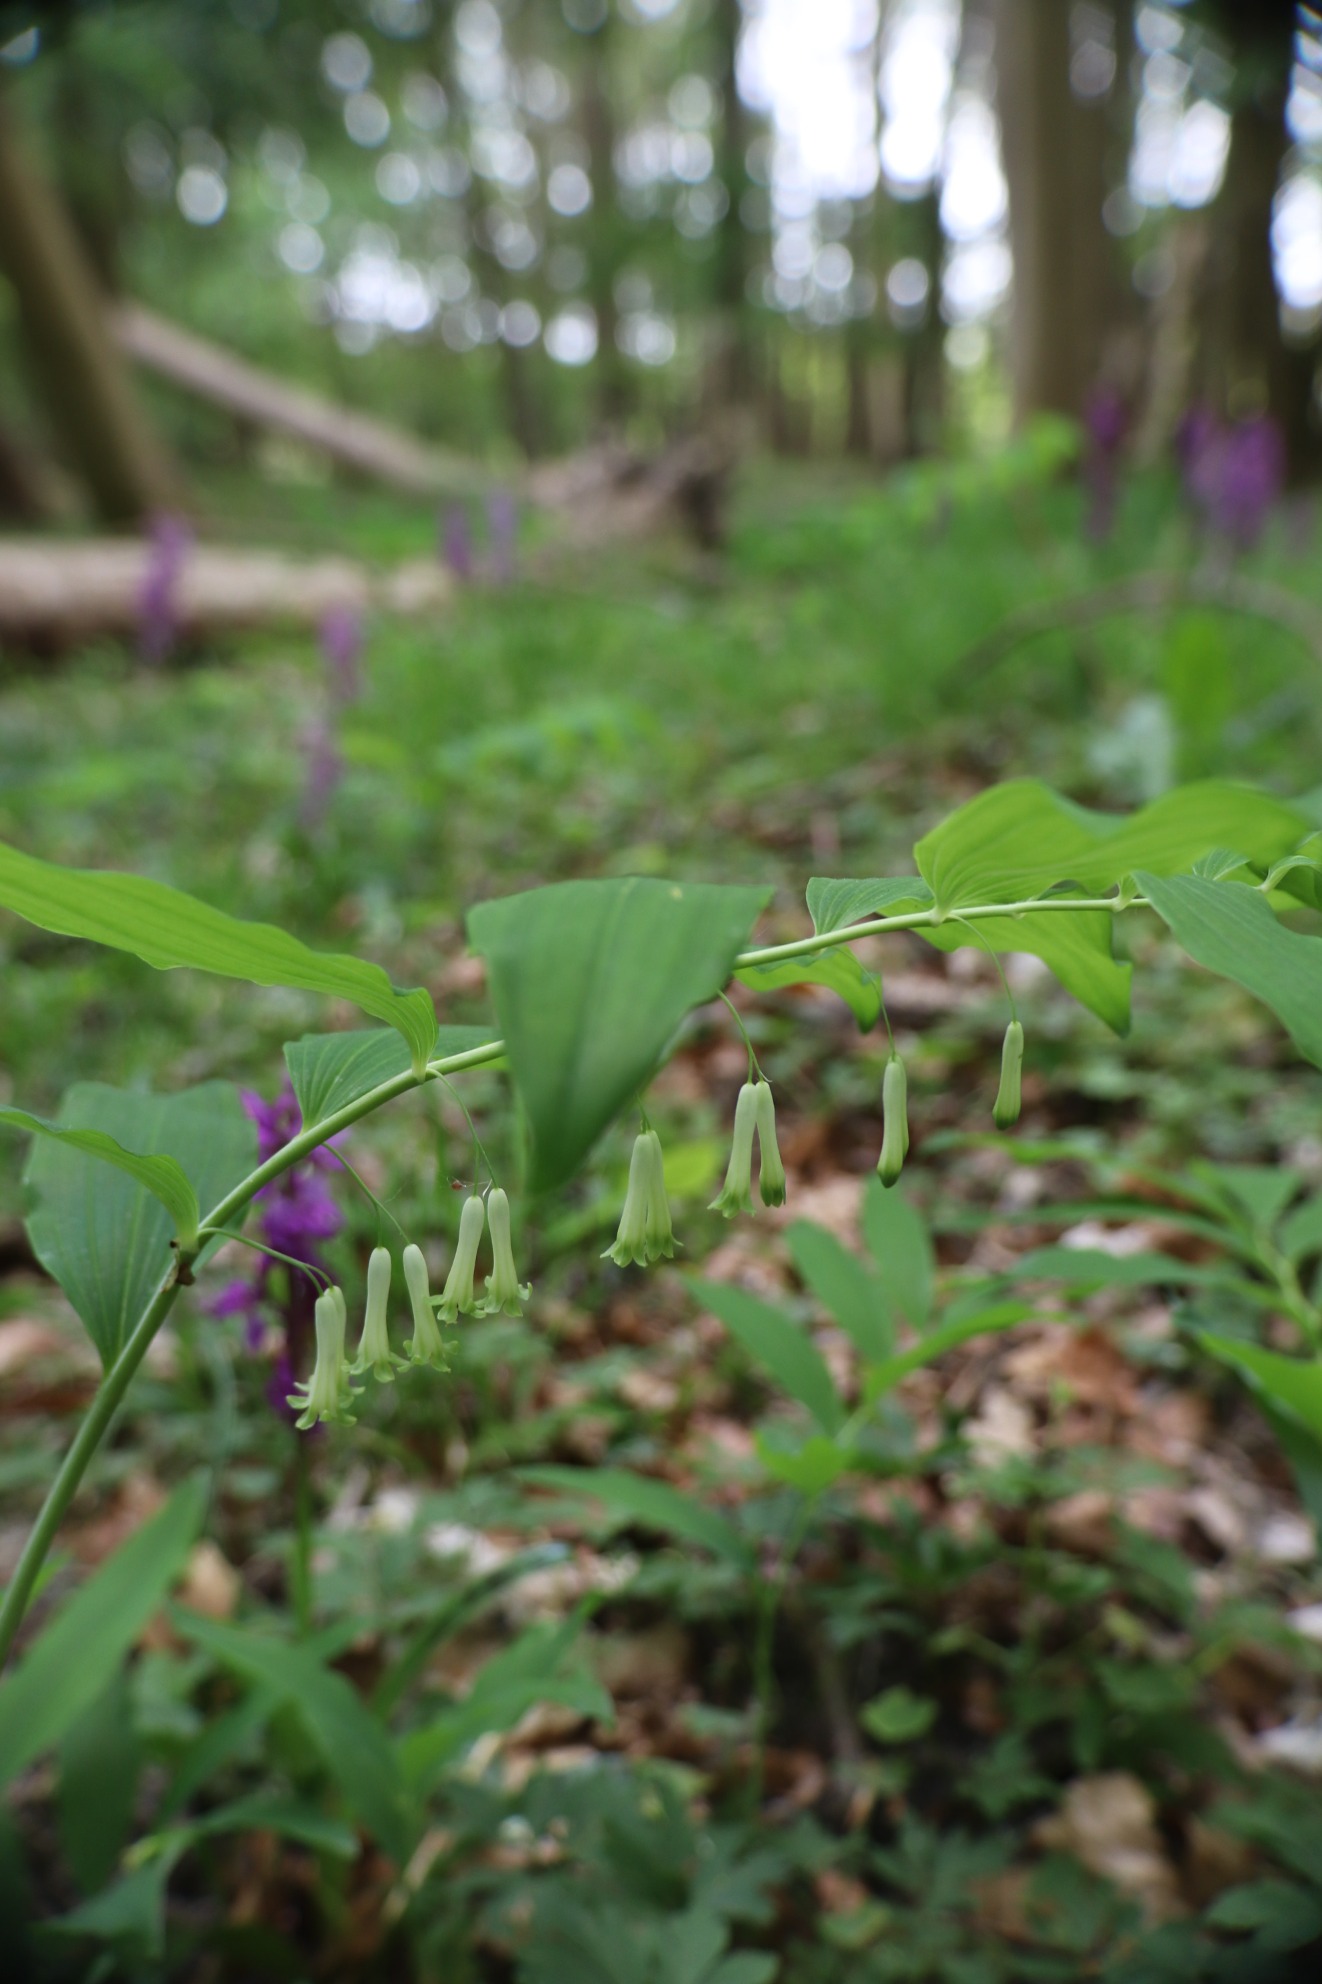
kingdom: Plantae
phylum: Tracheophyta
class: Liliopsida
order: Asparagales
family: Asparagaceae
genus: Polygonatum
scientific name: Polygonatum multiflorum
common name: Stor konval
